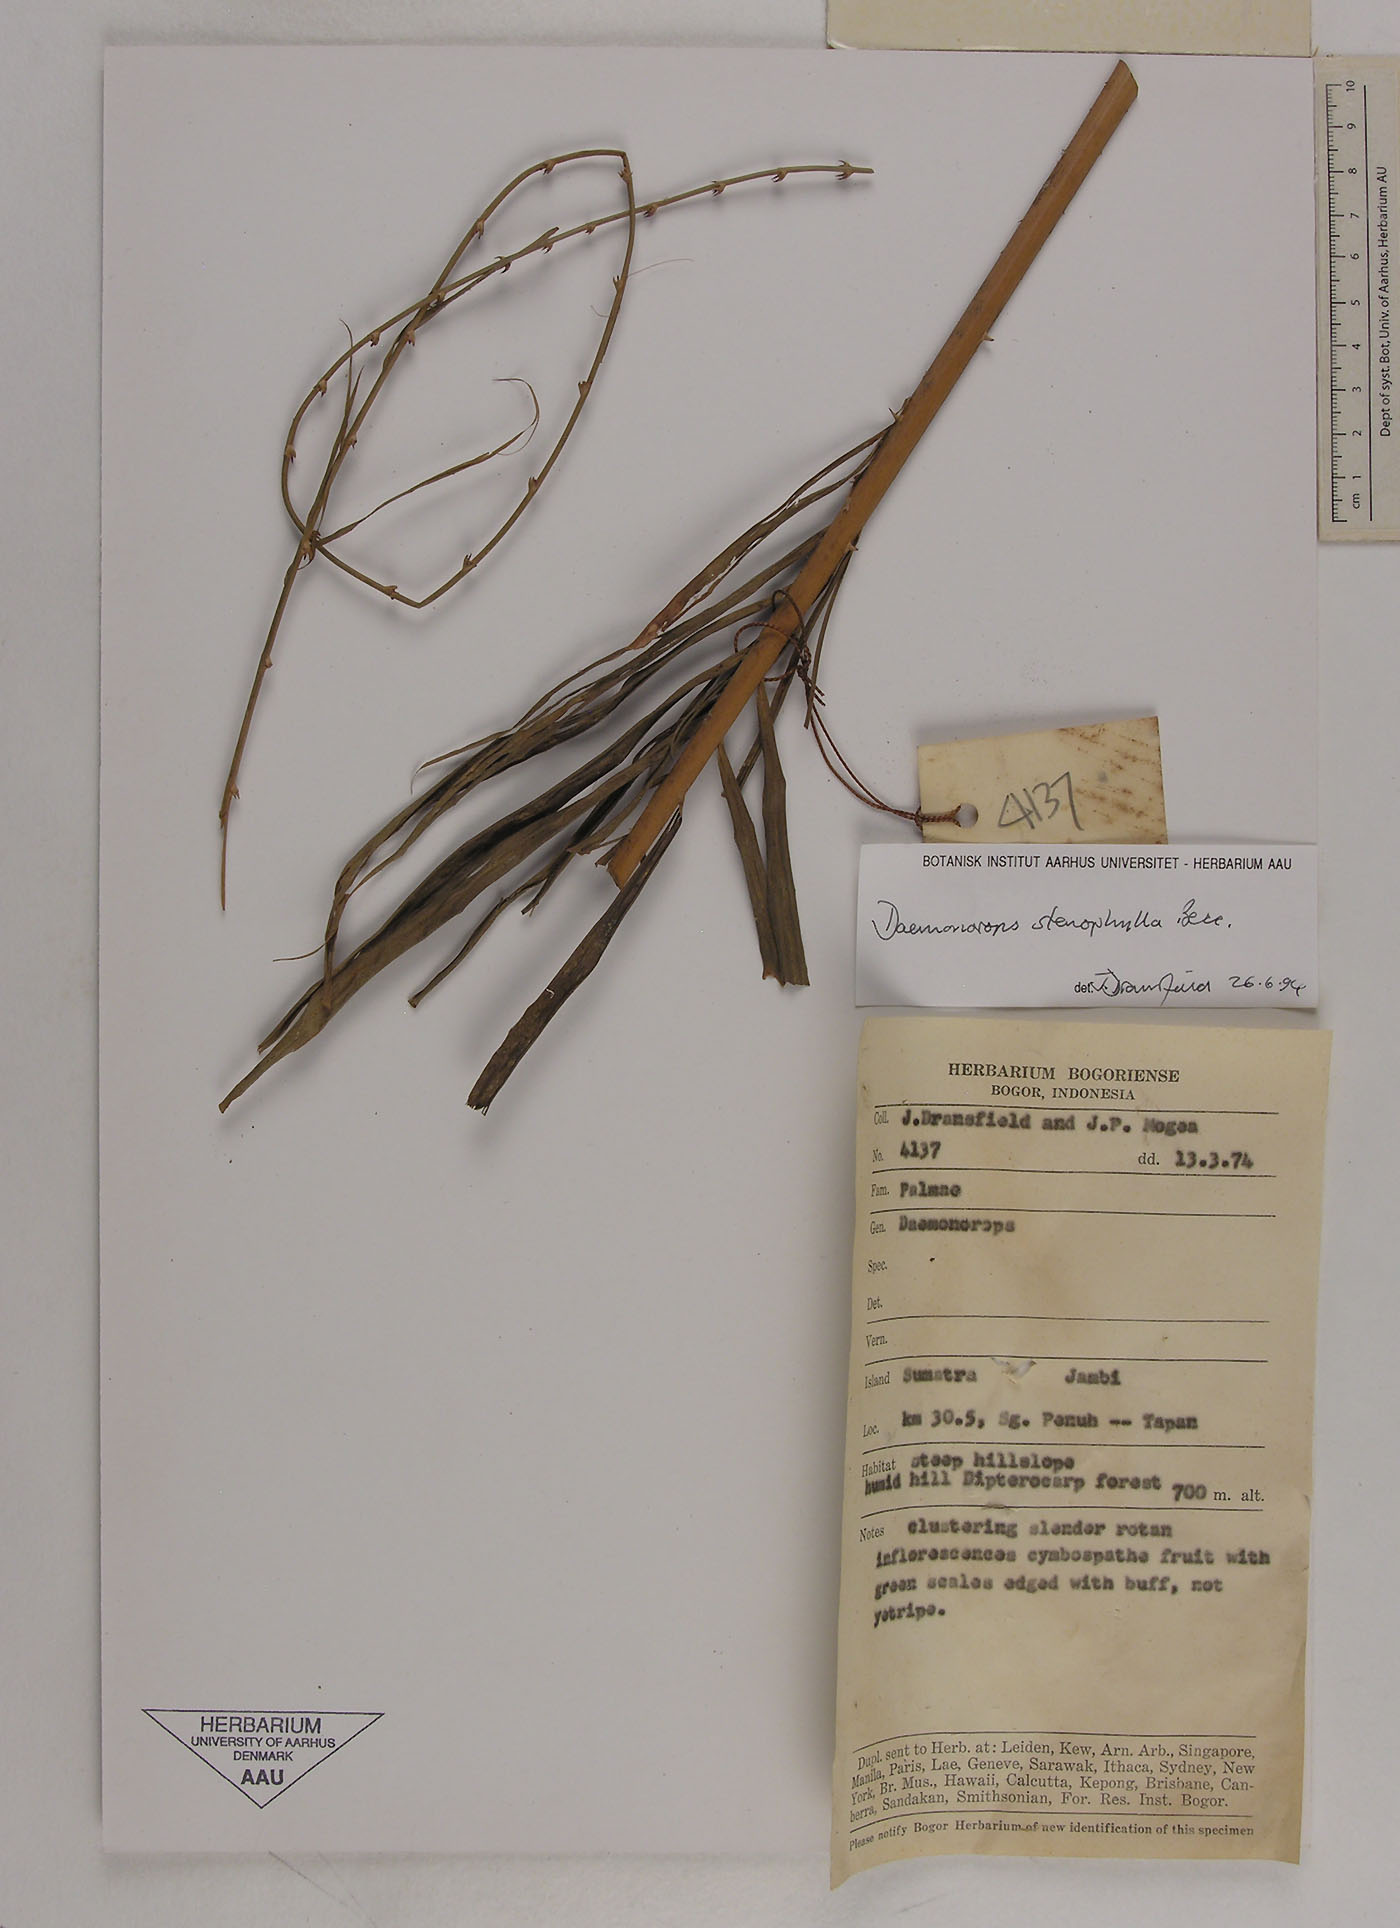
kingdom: Plantae
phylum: Tracheophyta
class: Liliopsida
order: Arecales
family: Arecaceae
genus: Calamus
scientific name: Calamus melanochaetes
